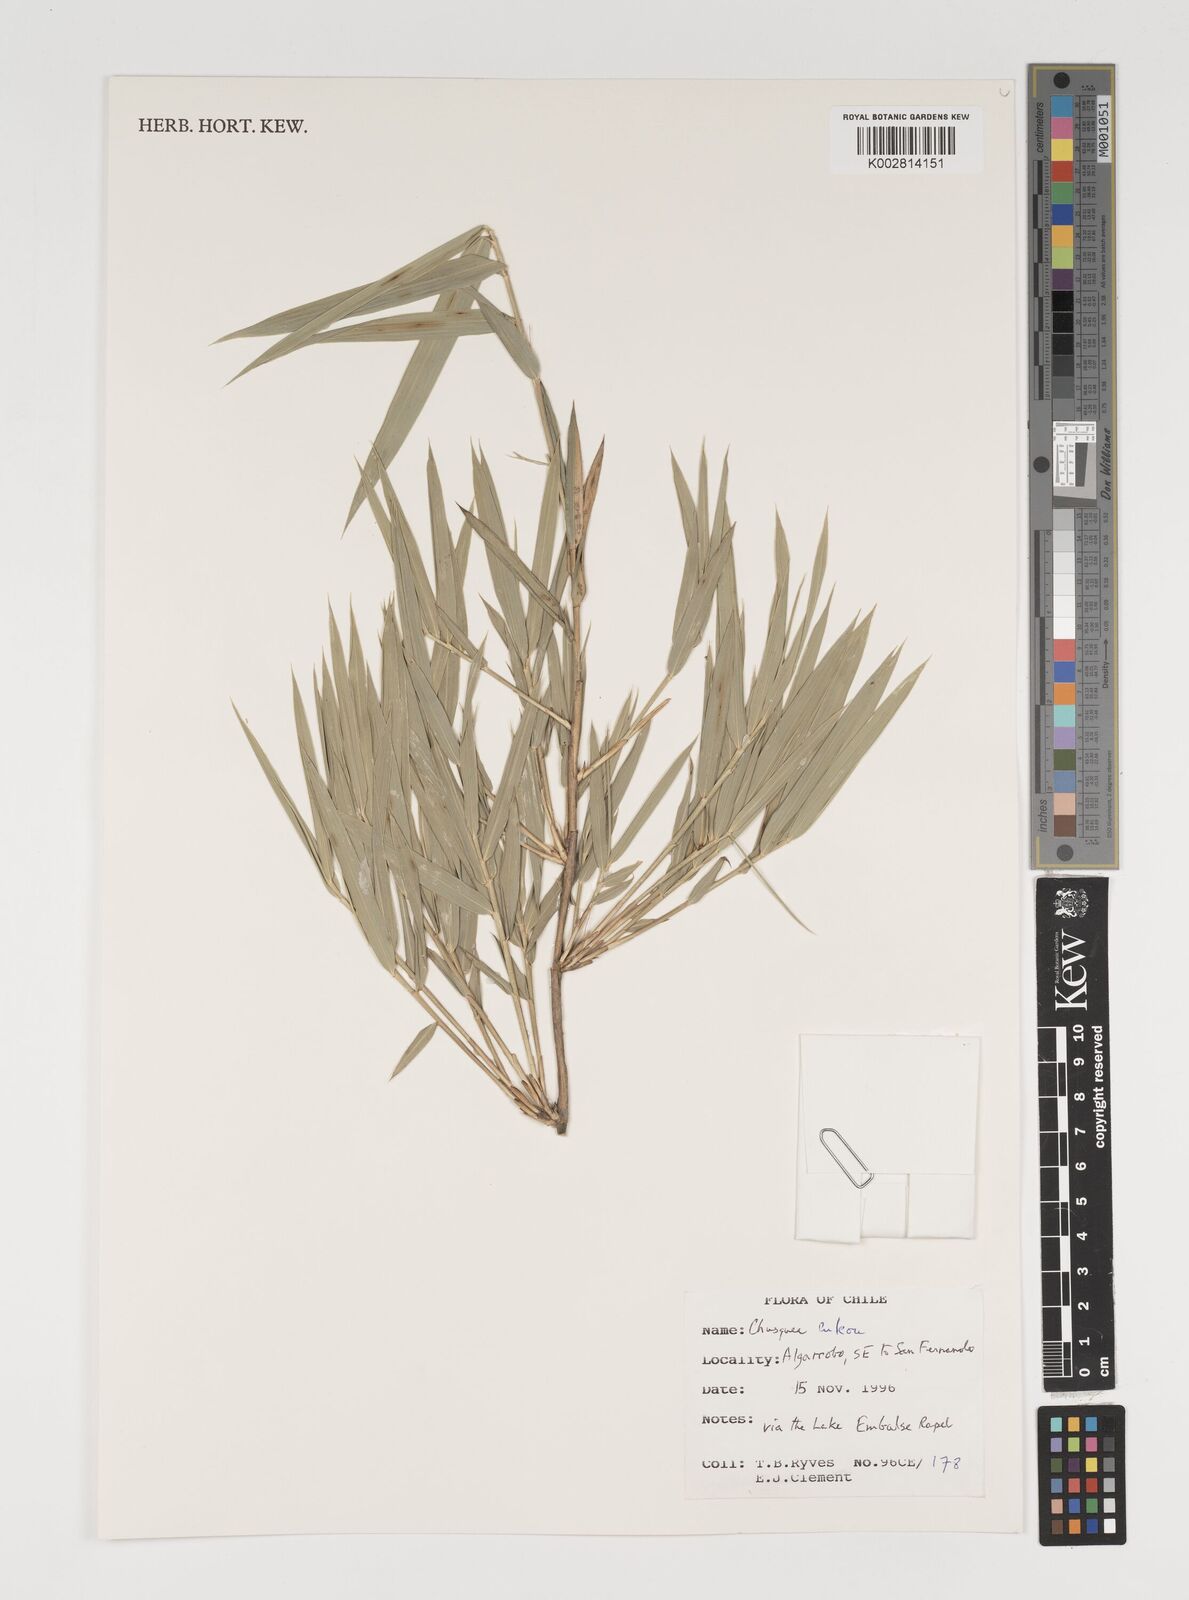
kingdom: Plantae
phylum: Tracheophyta
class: Liliopsida
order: Poales
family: Poaceae
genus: Chusquea
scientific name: Chusquea culeou
